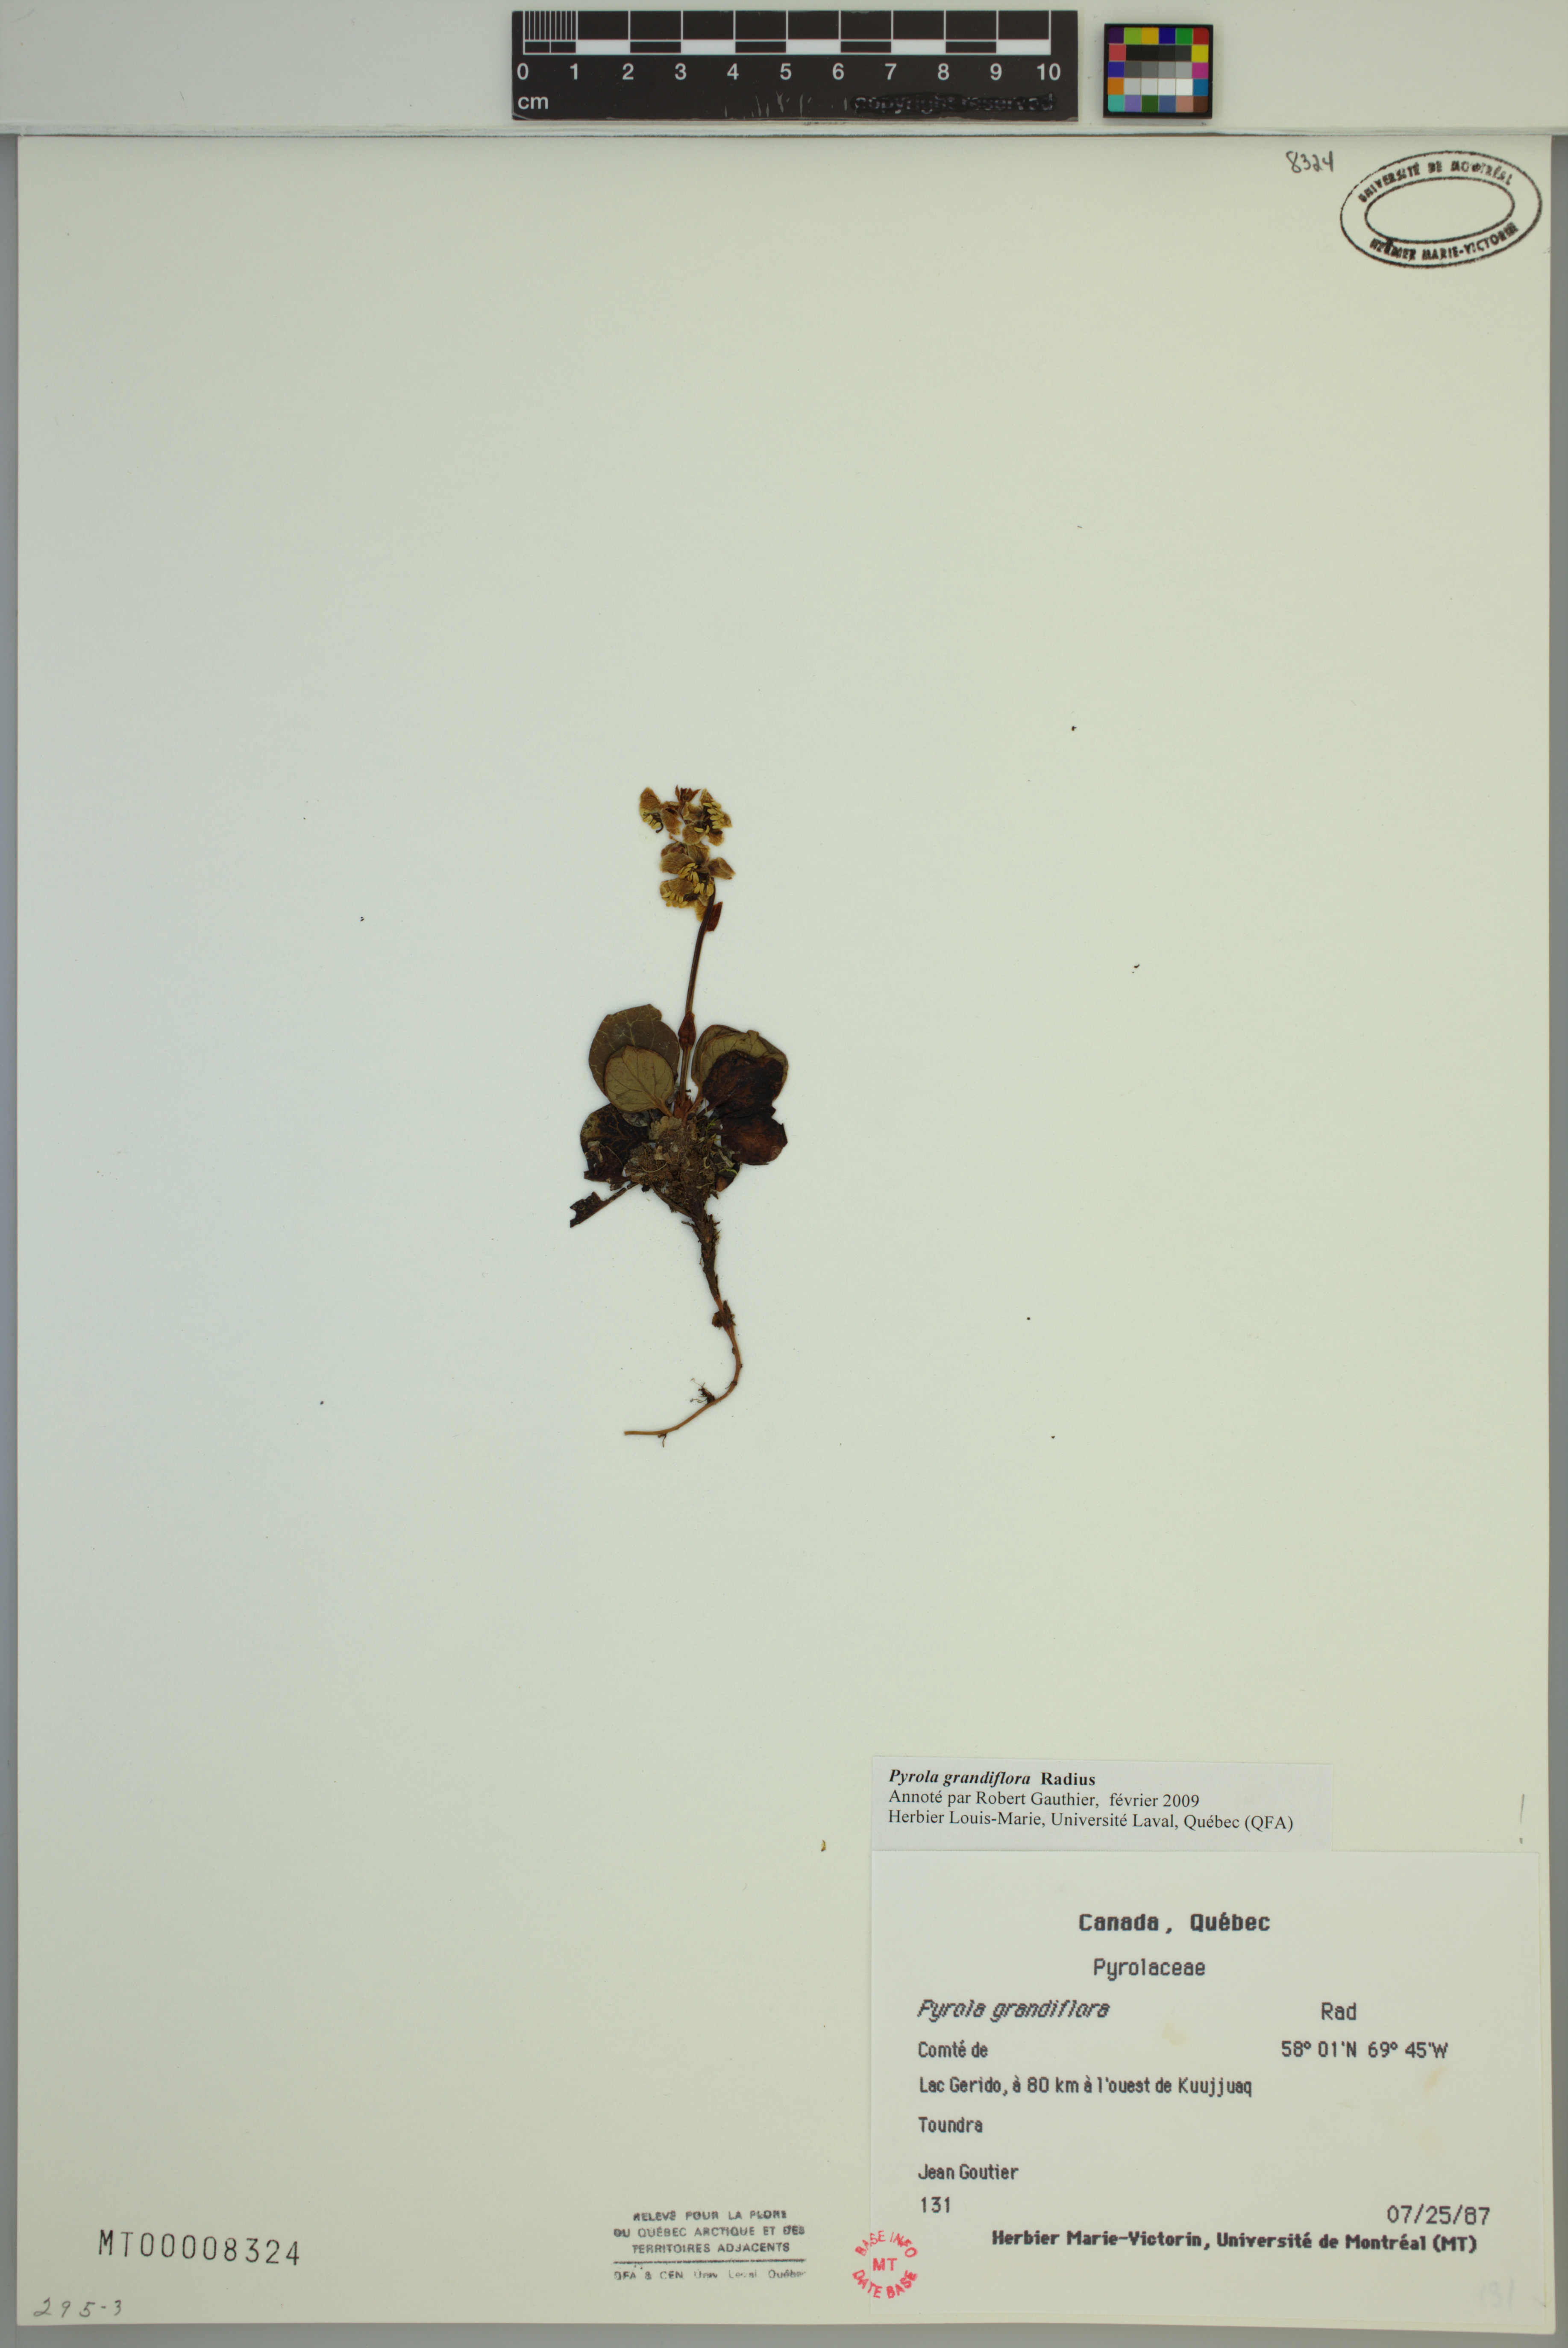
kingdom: Plantae
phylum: Tracheophyta
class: Magnoliopsida
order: Ericales
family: Ericaceae
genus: Pyrola
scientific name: Pyrola grandiflora
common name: Arctic pyrola
